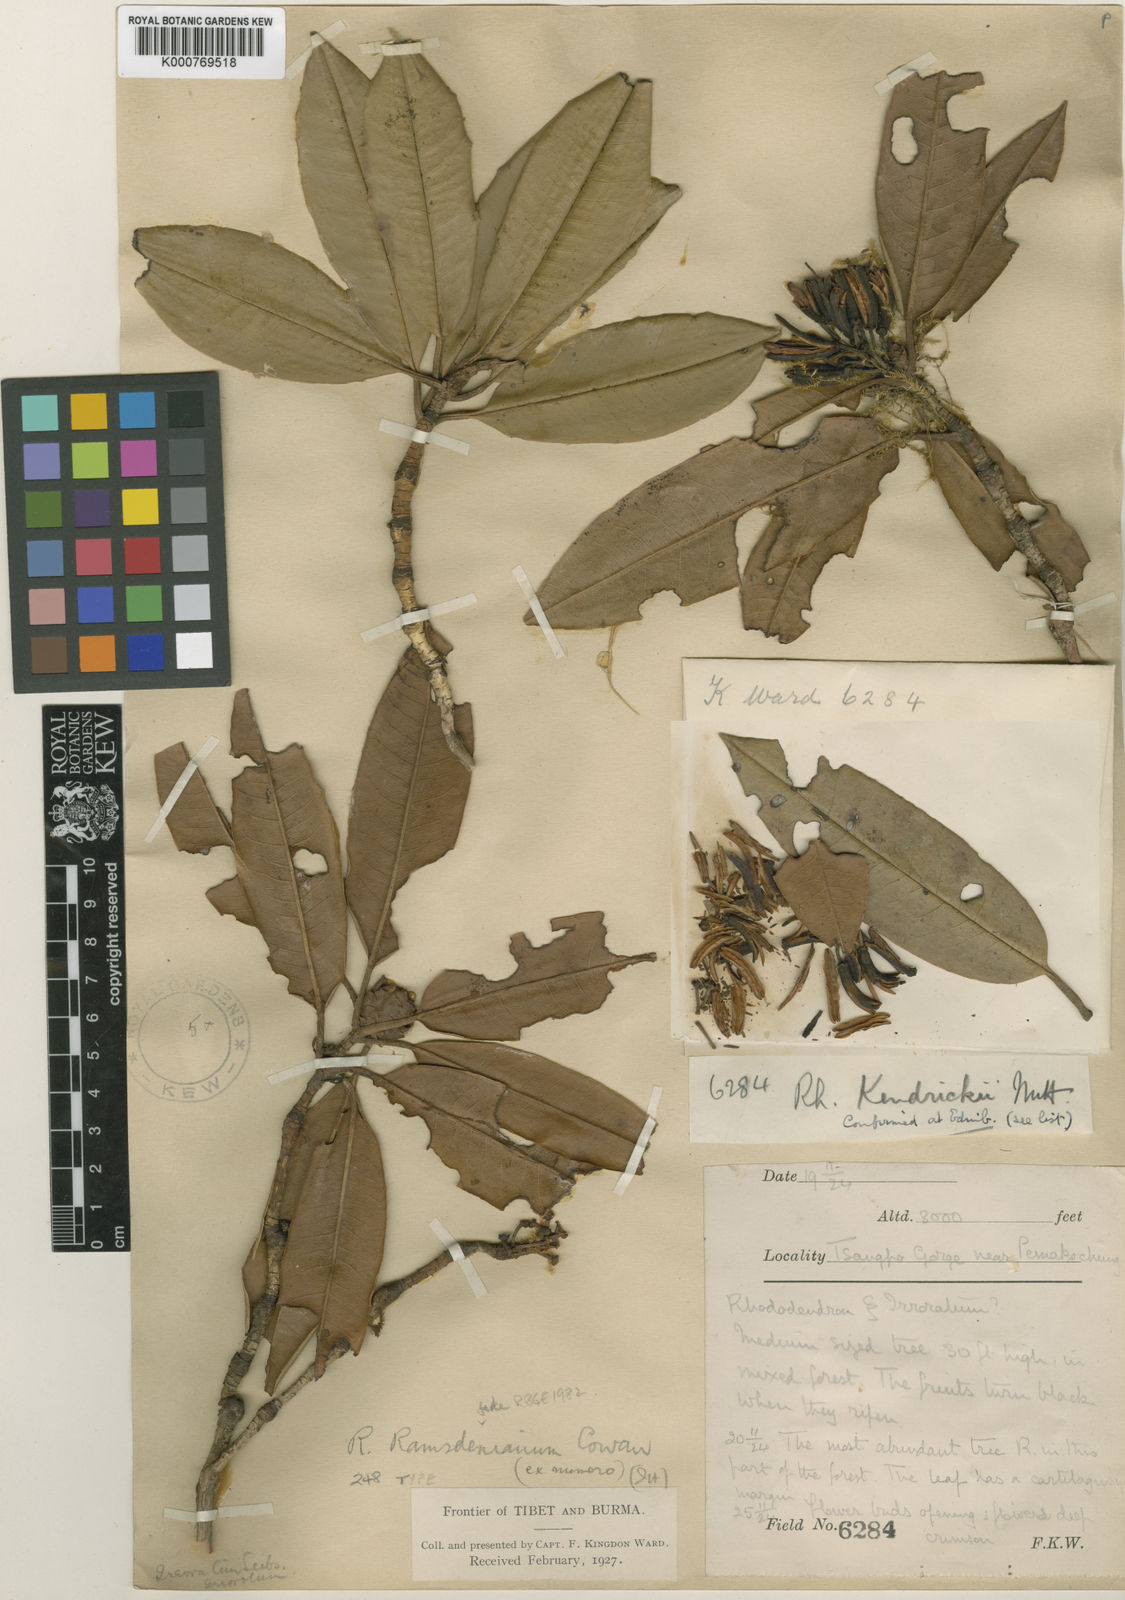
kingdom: Plantae
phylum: Tracheophyta
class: Magnoliopsida
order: Ericales
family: Ericaceae
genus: Rhododendron
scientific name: Rhododendron ramsdenianum
